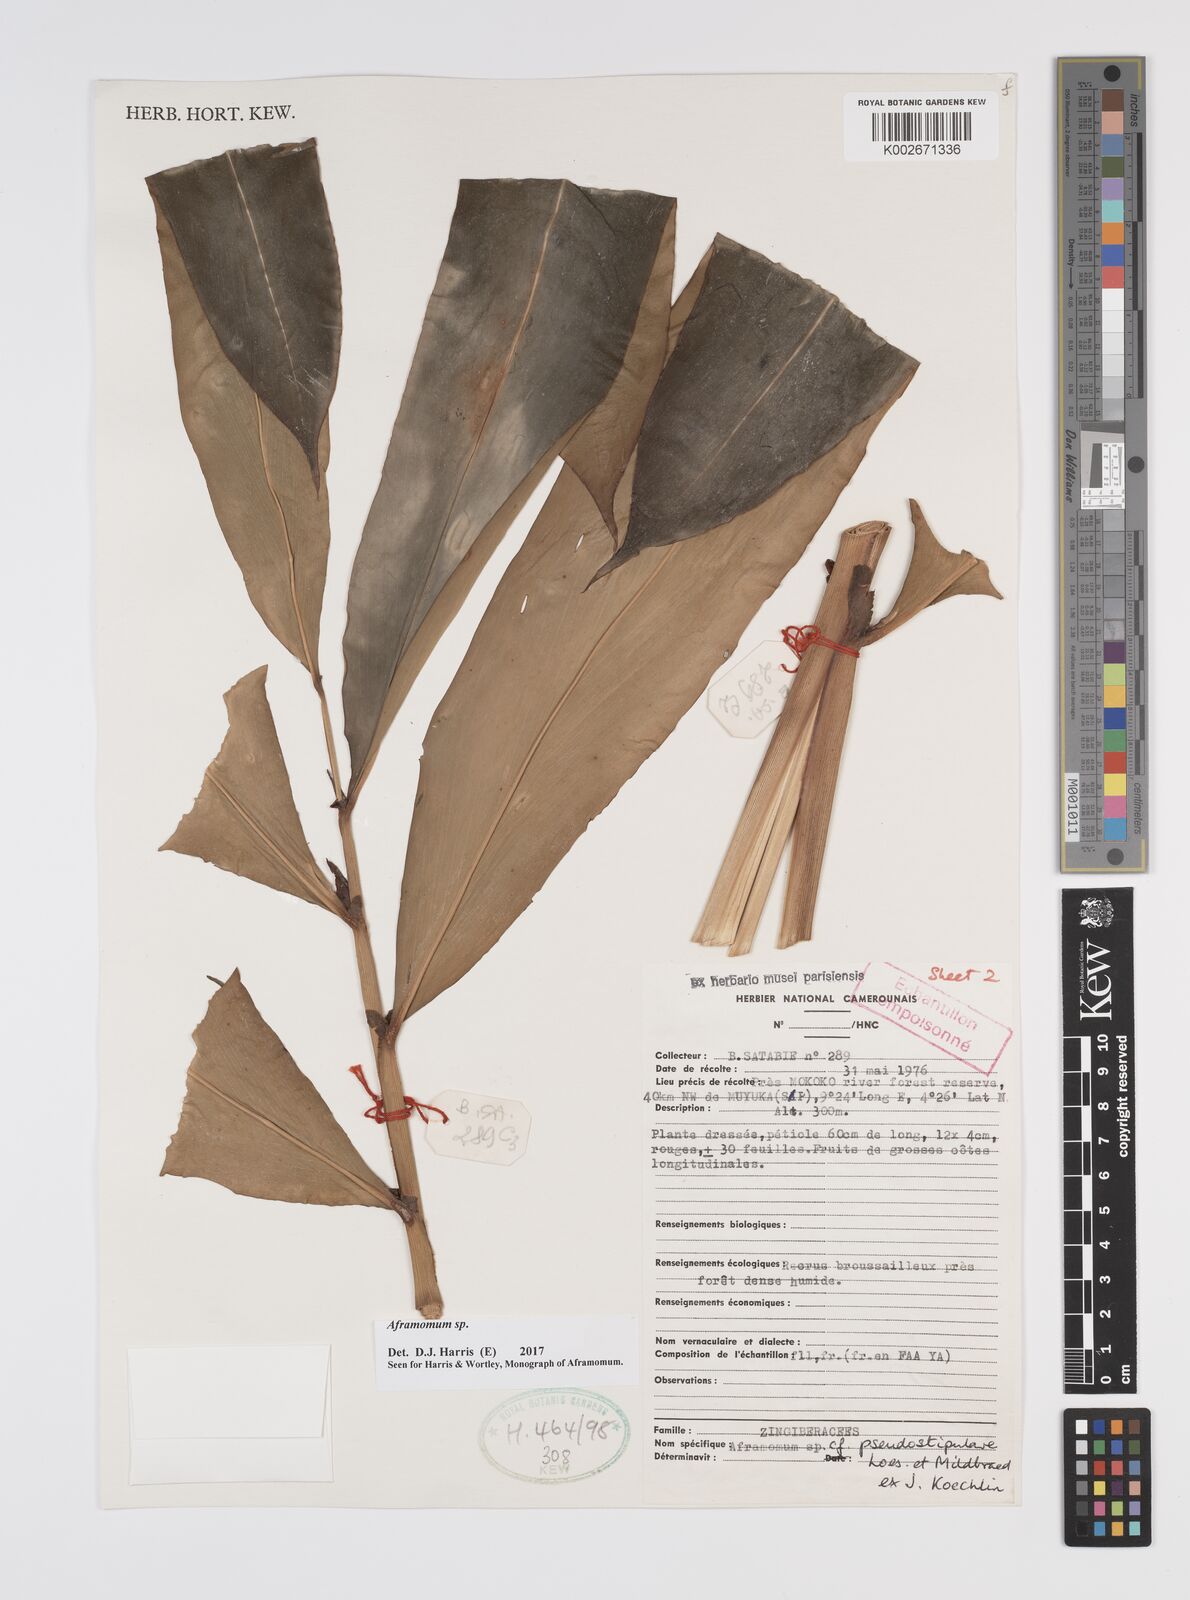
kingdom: Plantae
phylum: Tracheophyta
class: Liliopsida
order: Zingiberales
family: Zingiberaceae
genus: Aframomum
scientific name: Aframomum
